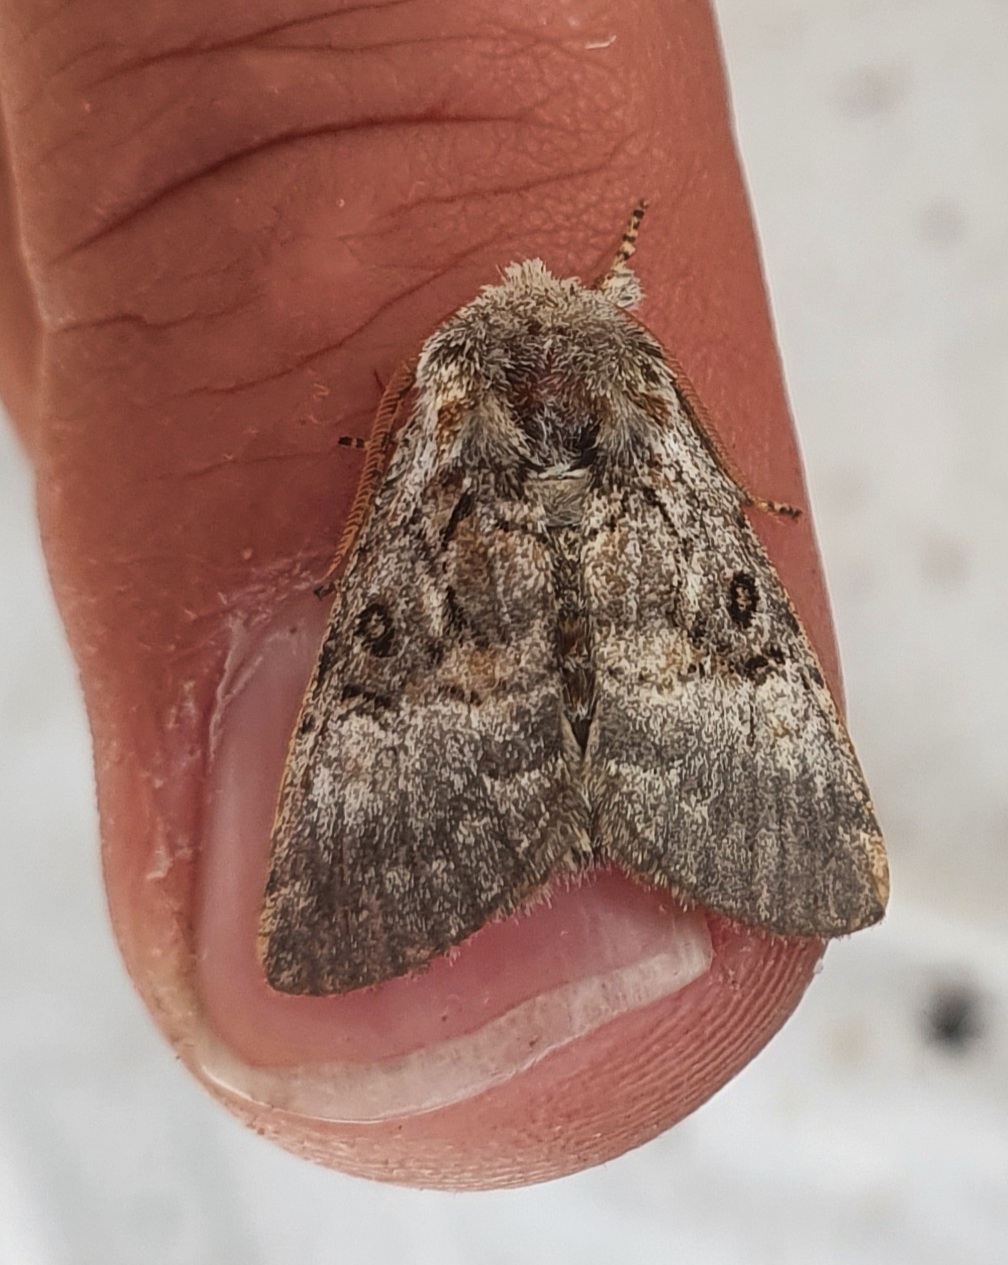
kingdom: Animalia
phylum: Arthropoda
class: Insecta
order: Lepidoptera
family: Noctuidae
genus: Colocasia
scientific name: Colocasia coryli
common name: Penselugle
